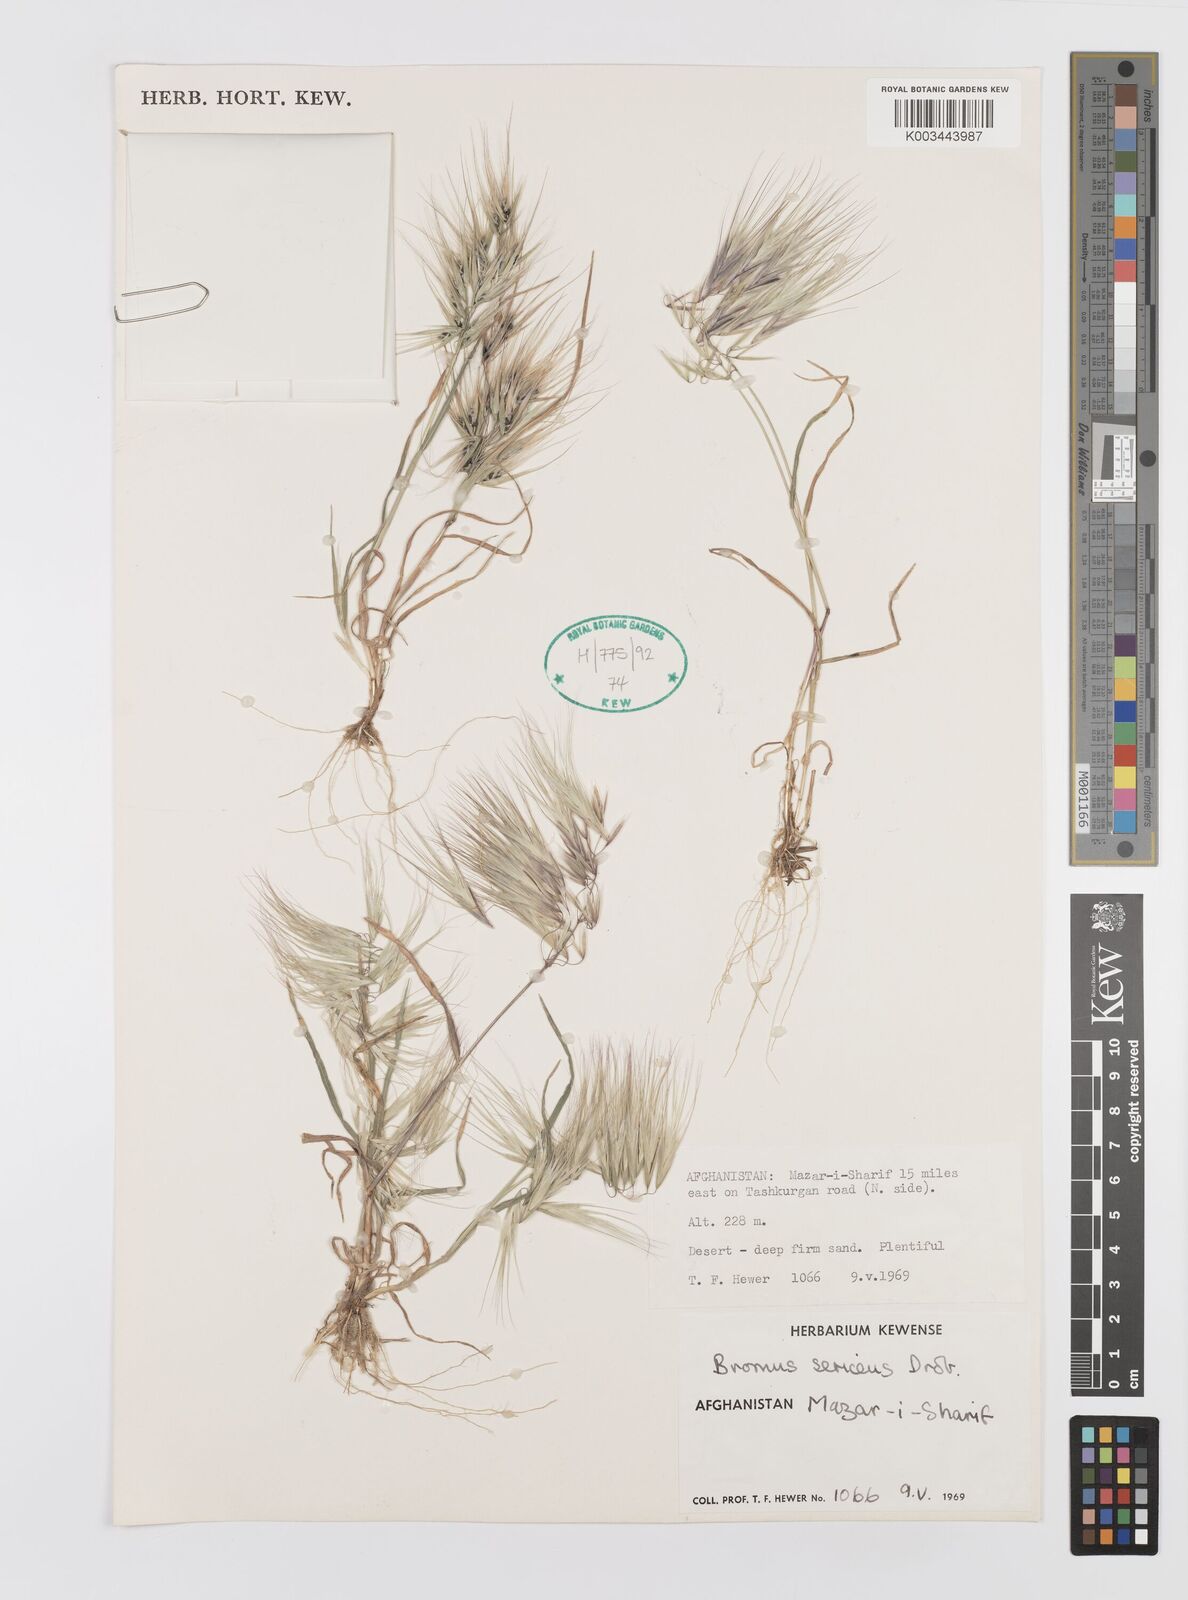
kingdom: Plantae
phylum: Tracheophyta
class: Liliopsida
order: Poales
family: Poaceae
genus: Bromus
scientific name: Bromus moeszii
